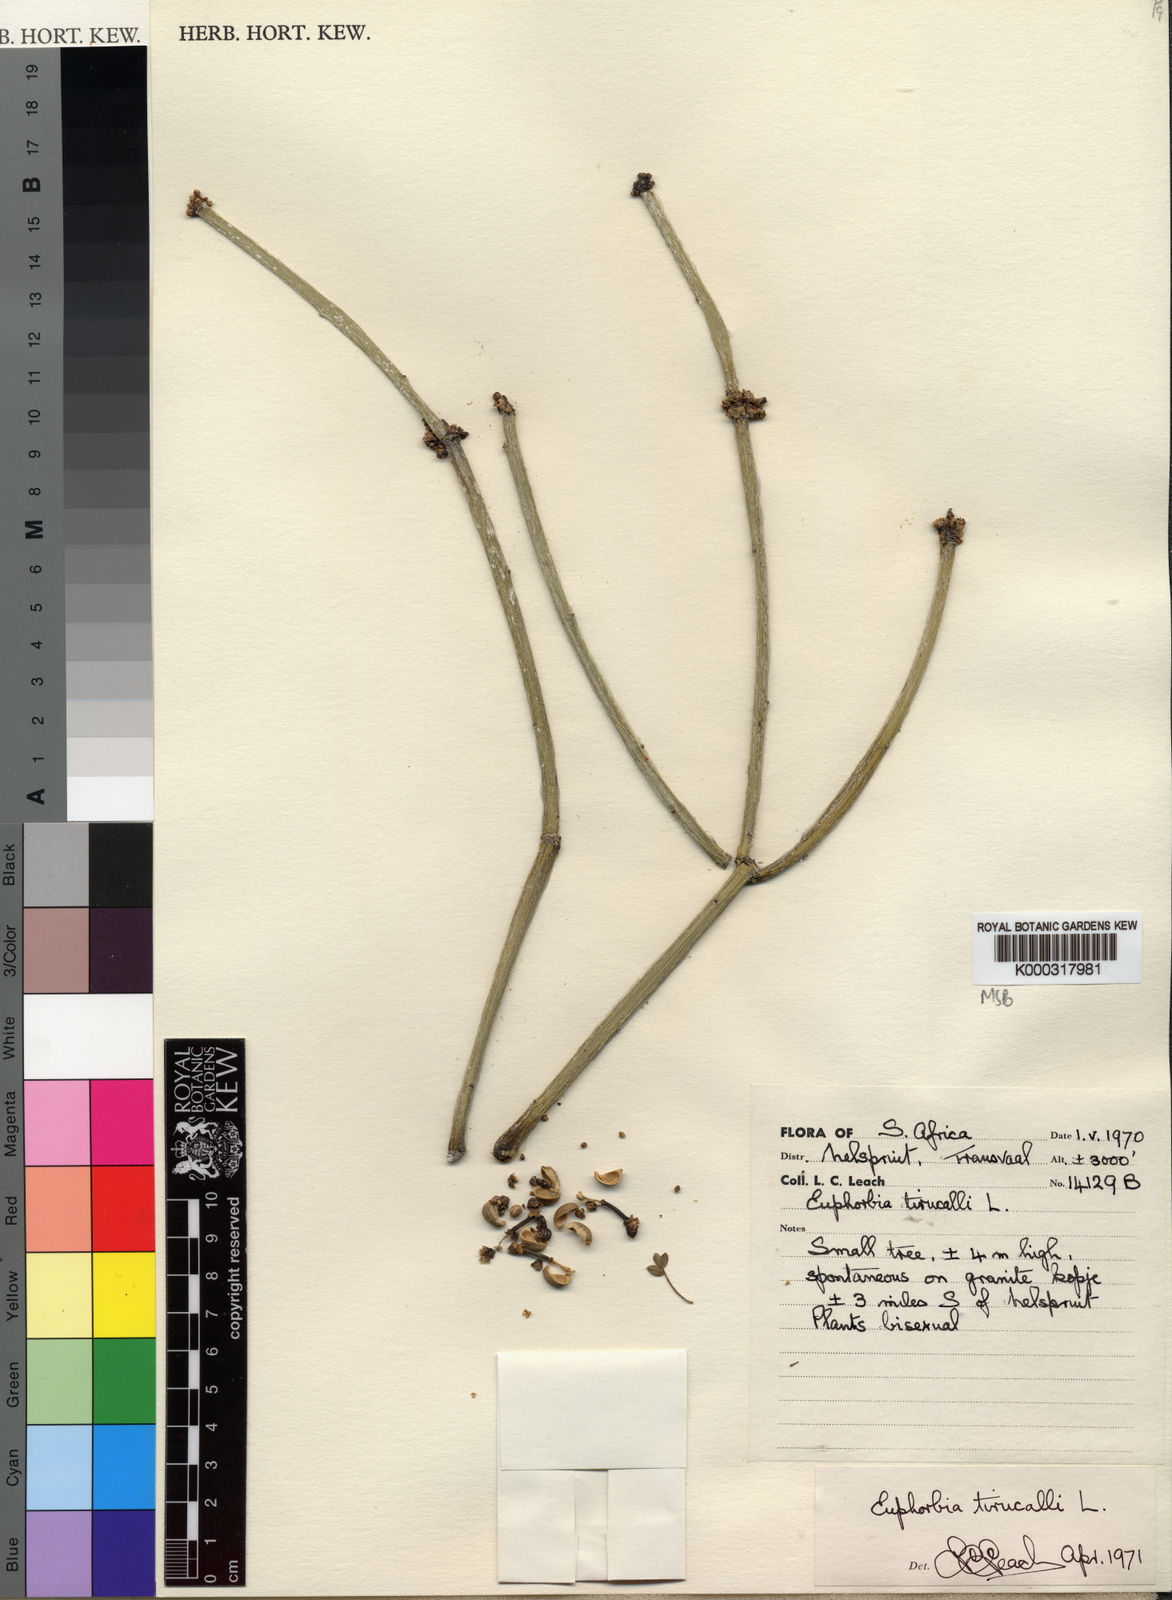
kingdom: Plantae
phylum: Tracheophyta
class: Magnoliopsida
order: Malpighiales
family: Euphorbiaceae
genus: Euphorbia
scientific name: Euphorbia tirucalli
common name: Indiantree spurge
